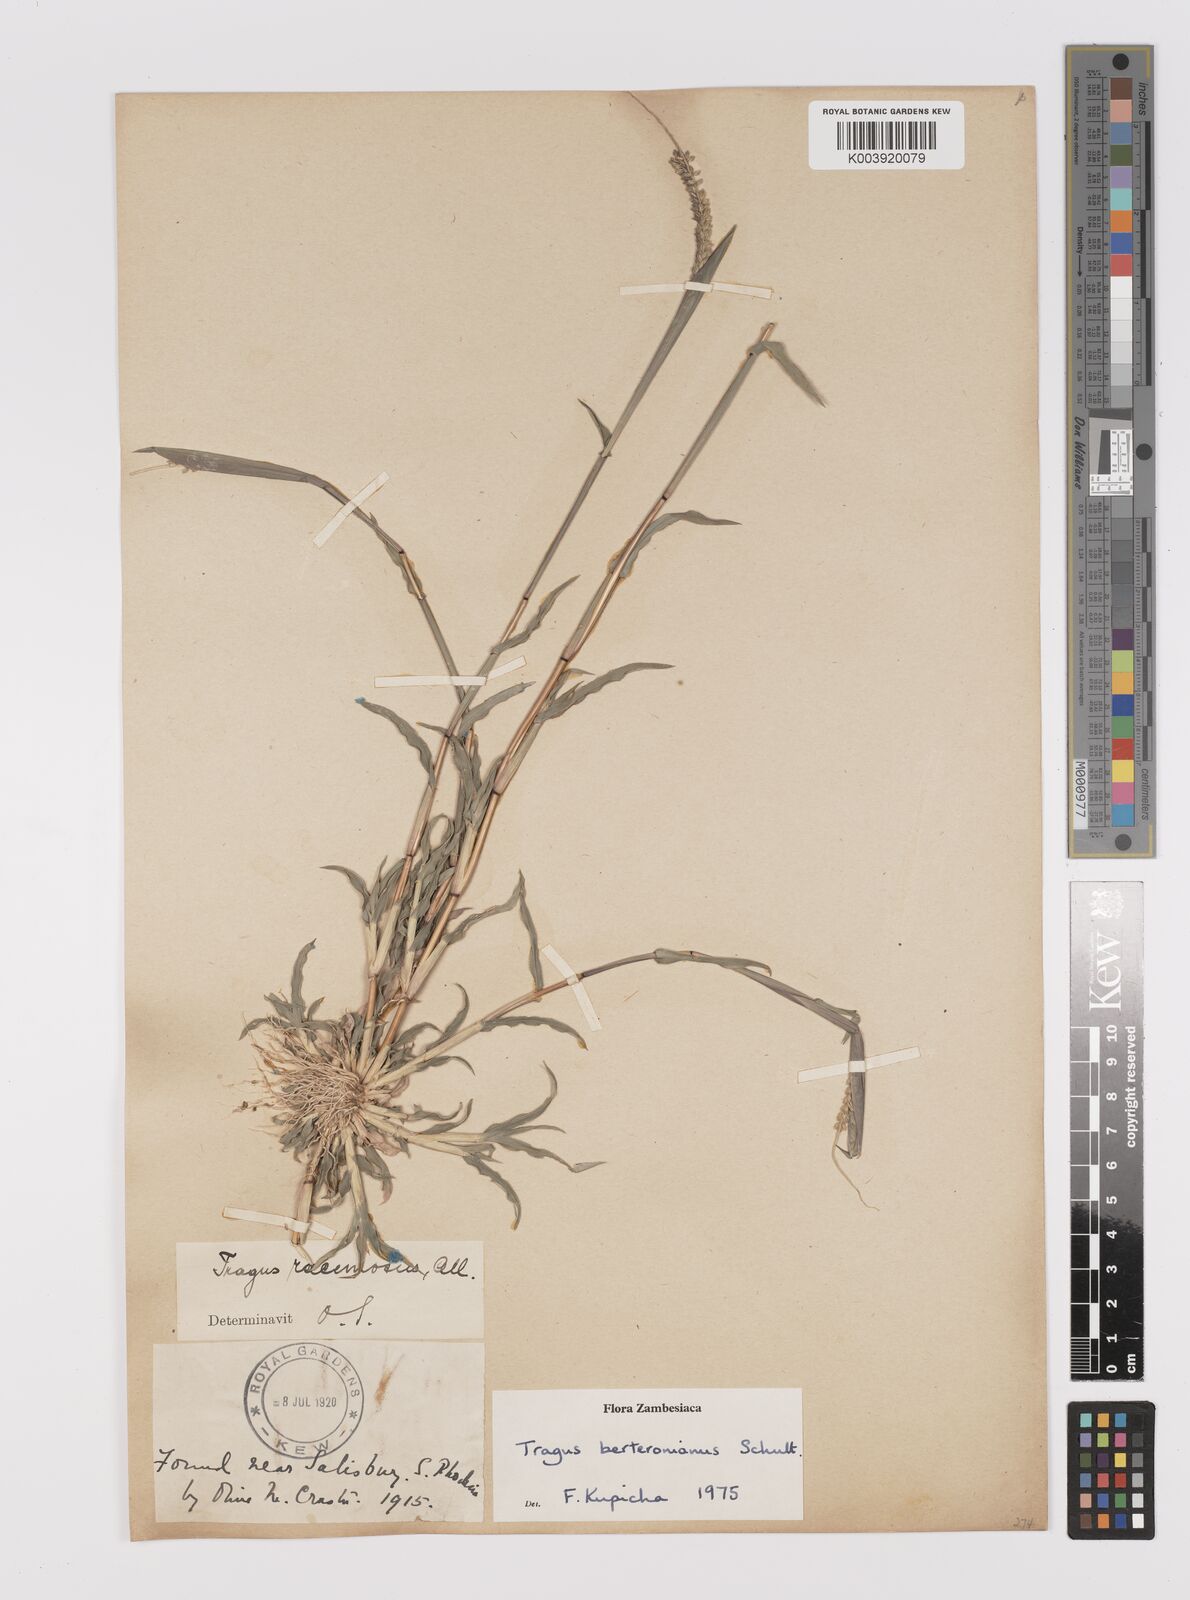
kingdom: Plantae
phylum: Tracheophyta
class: Liliopsida
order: Poales
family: Poaceae
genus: Tragus
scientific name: Tragus berteronianus
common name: African bur-grass
